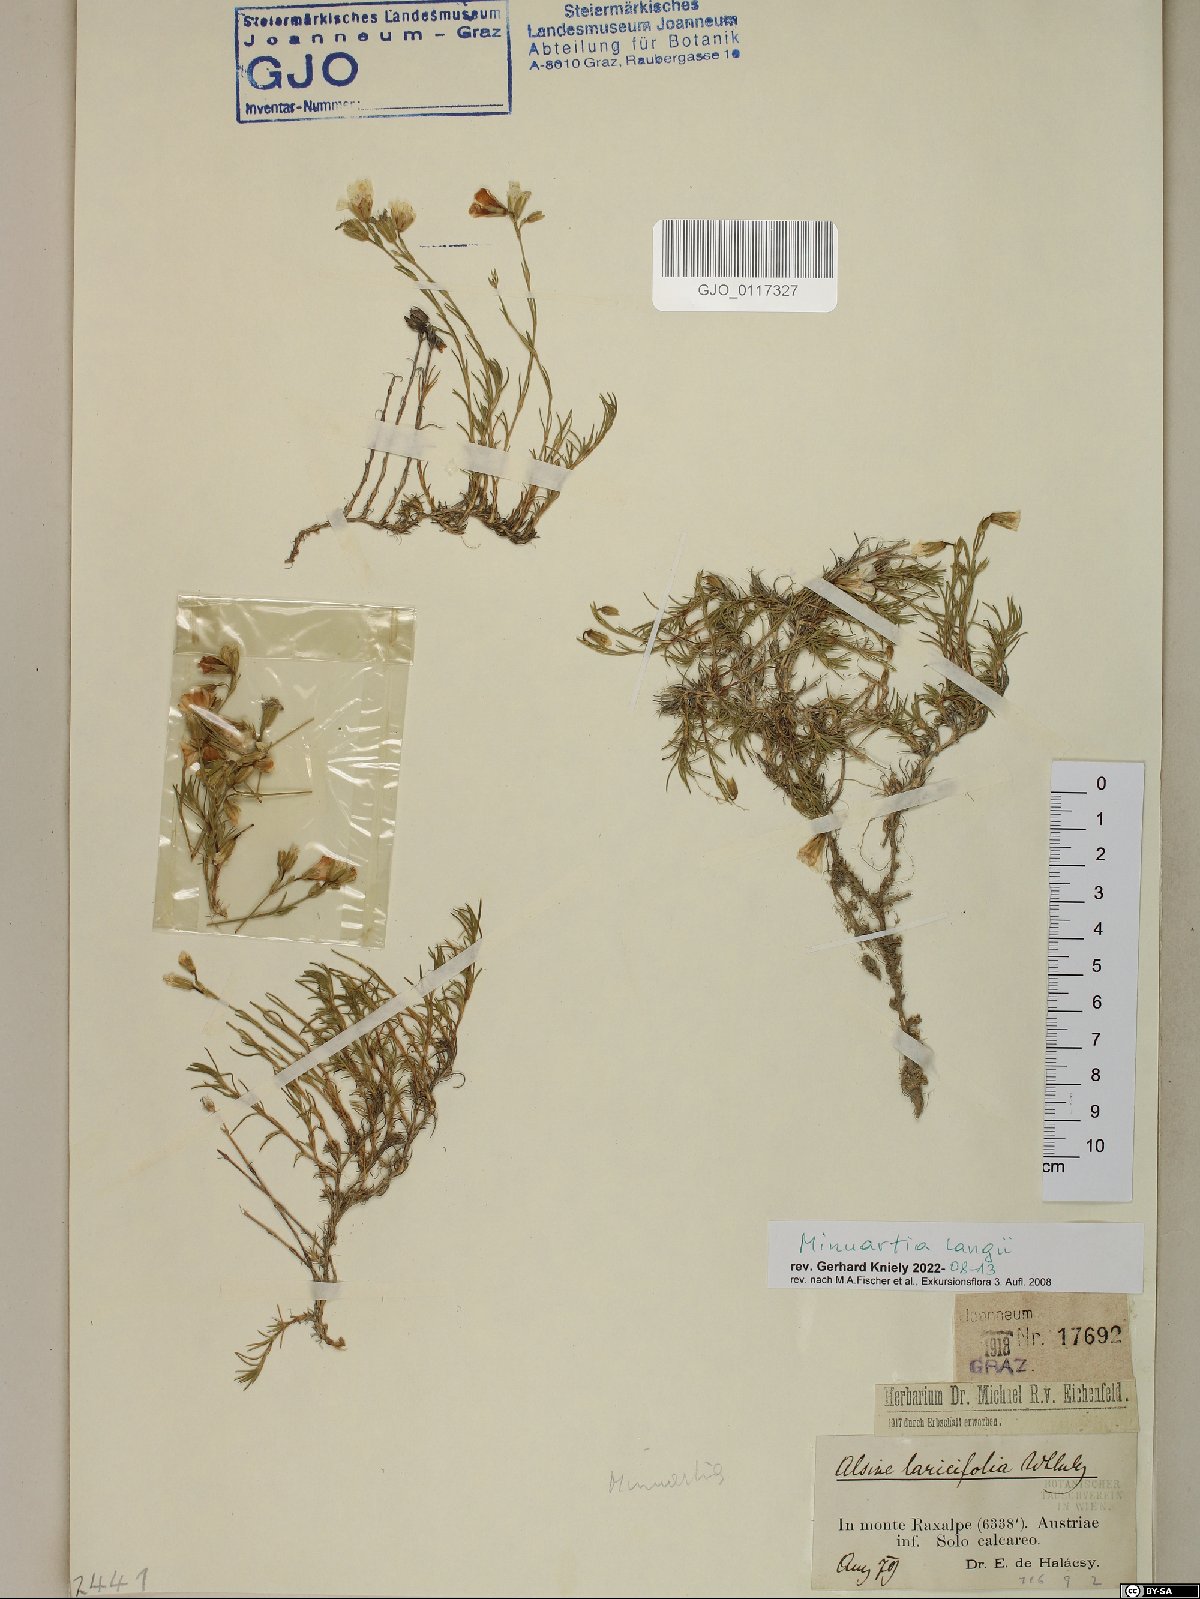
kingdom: Plantae
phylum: Tracheophyta
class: Magnoliopsida
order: Caryophyllales
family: Caryophyllaceae
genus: Cherleria
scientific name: Cherleria langii
